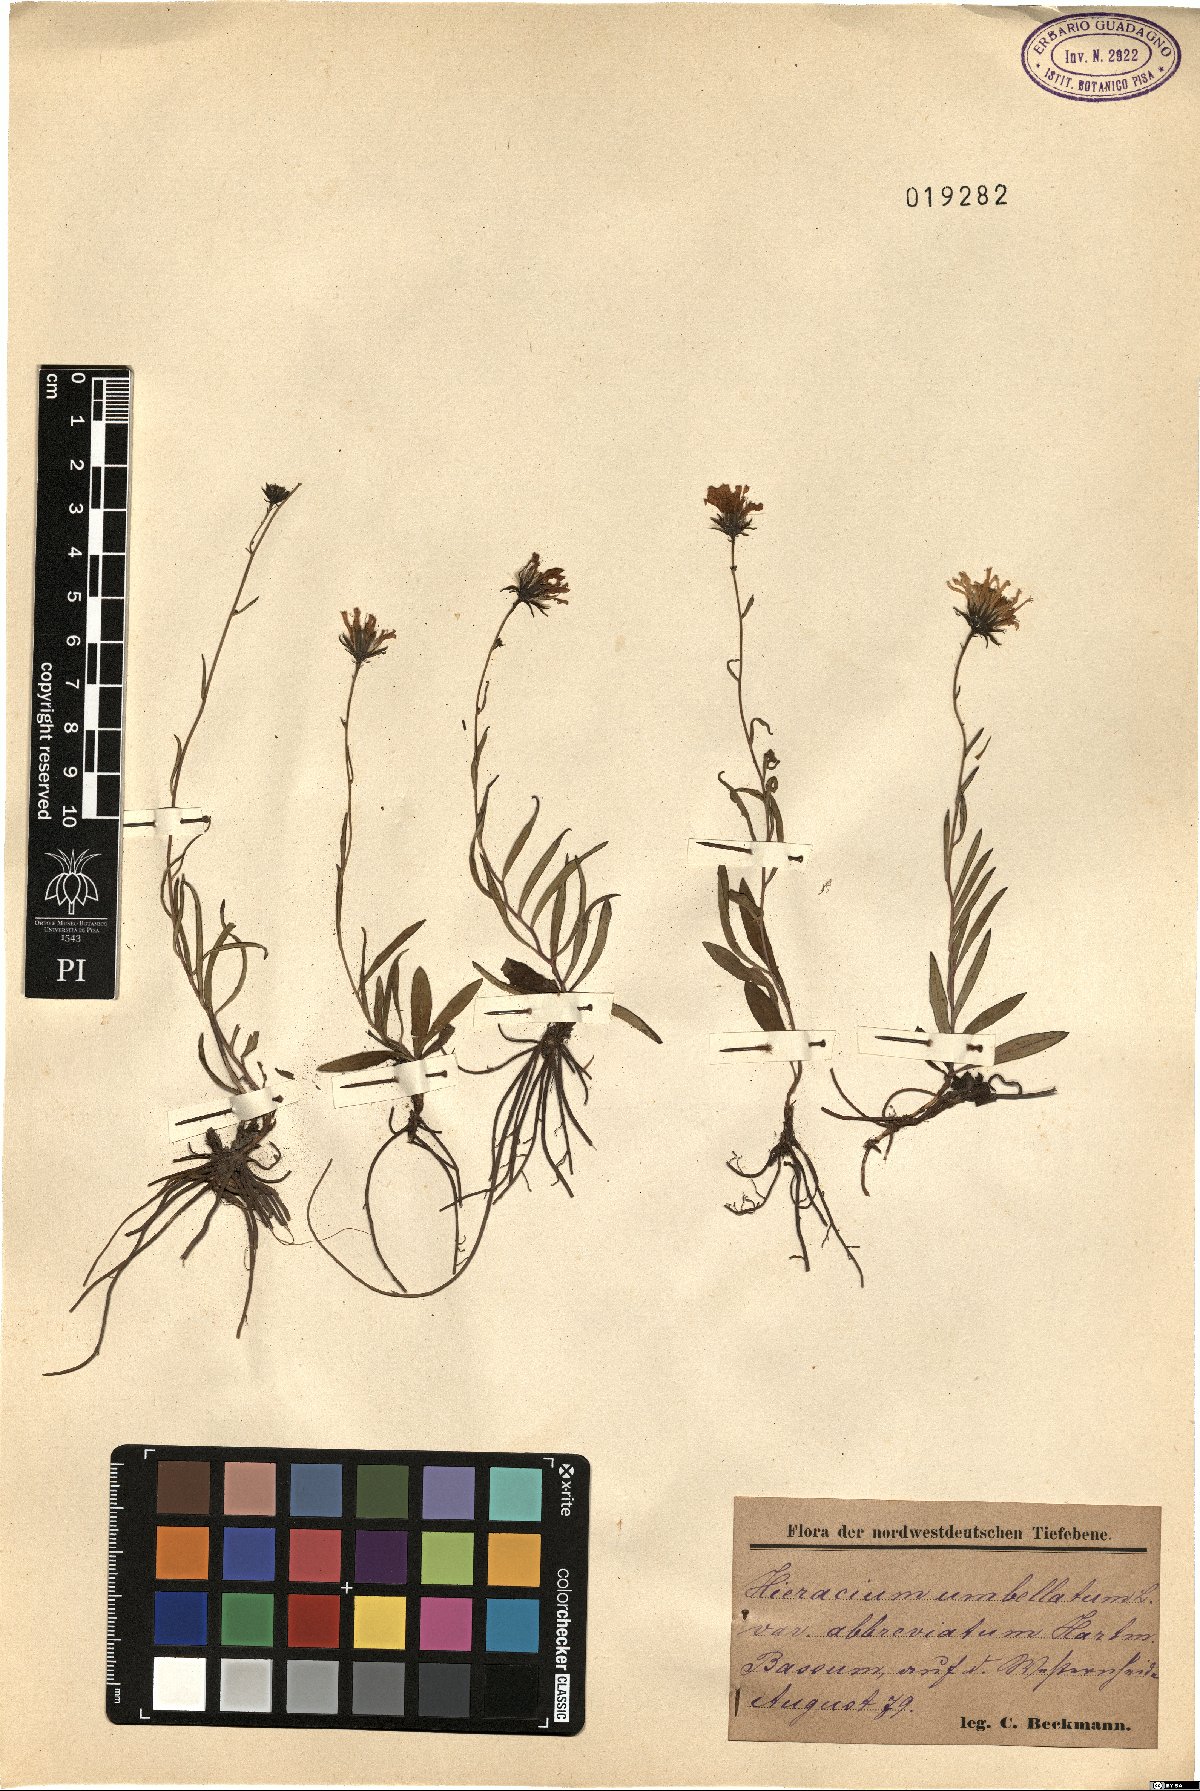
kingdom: Plantae
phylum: Tracheophyta
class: Magnoliopsida
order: Asterales
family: Asteraceae
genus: Hieracium
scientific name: Hieracium umbellatum
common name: Northern hawkweed
